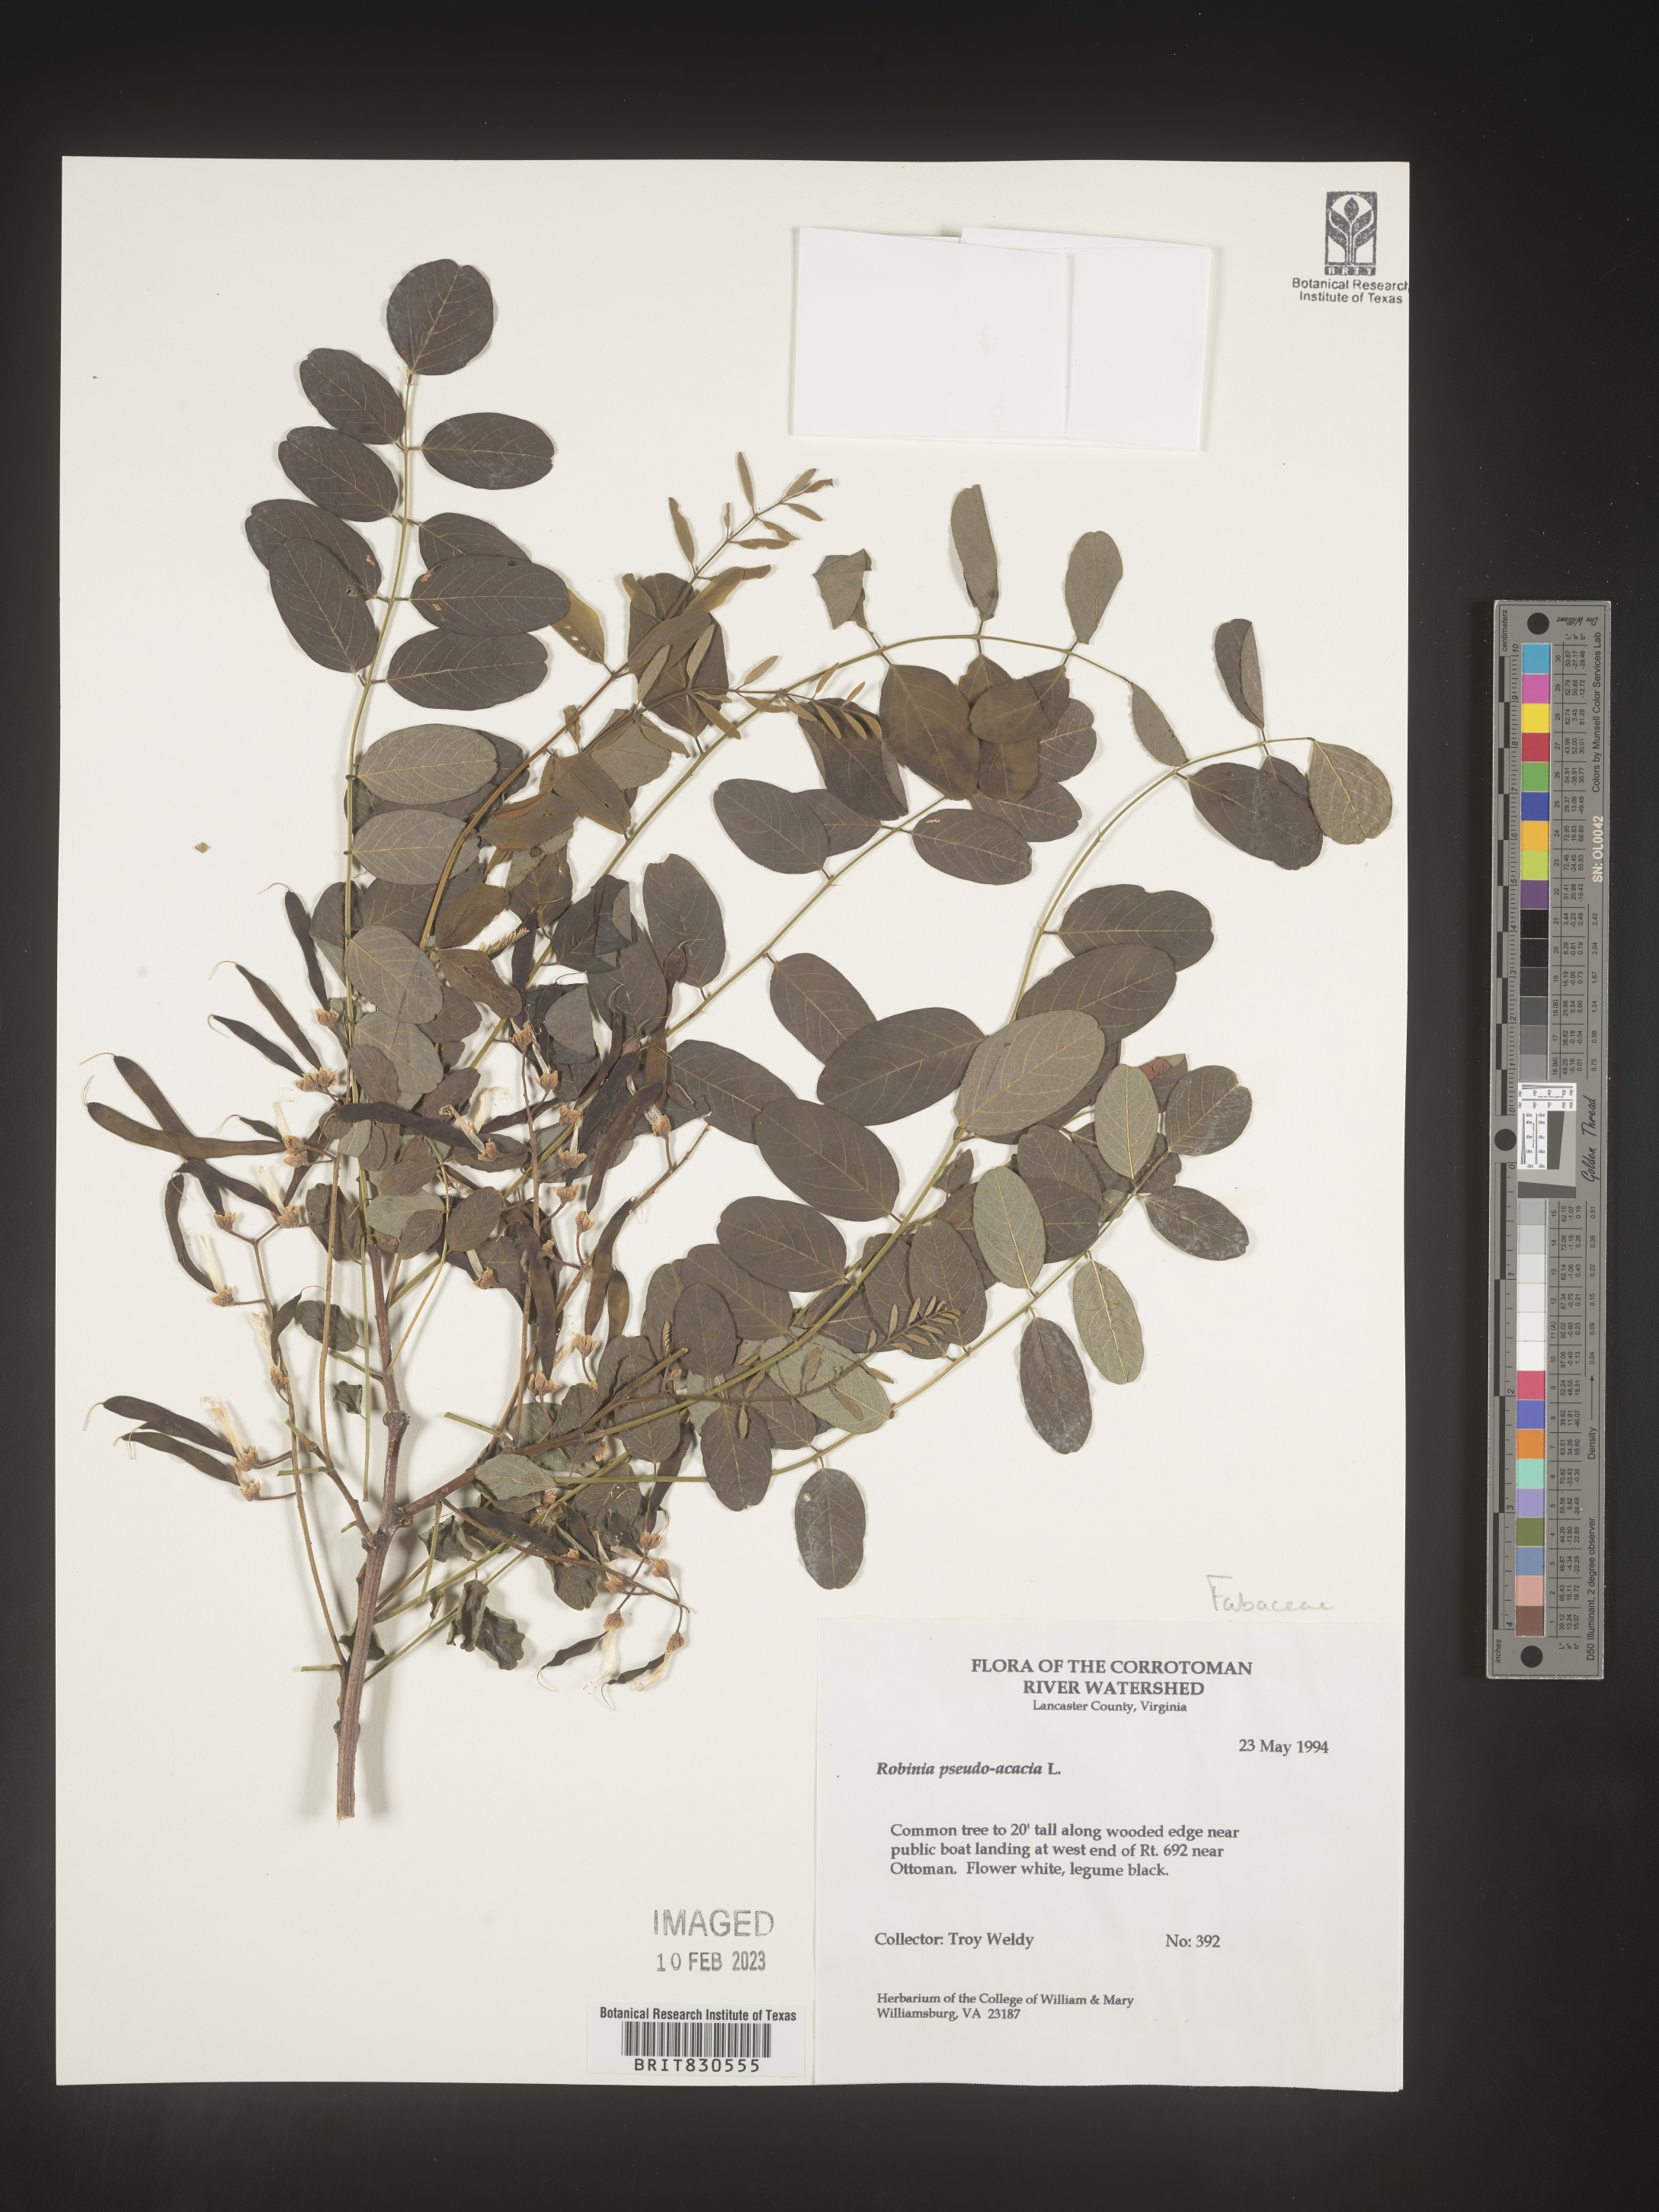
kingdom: Plantae
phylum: Tracheophyta
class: Magnoliopsida
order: Fabales
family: Fabaceae
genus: Robinia
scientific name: Robinia pseudoacacia
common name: Black locust
